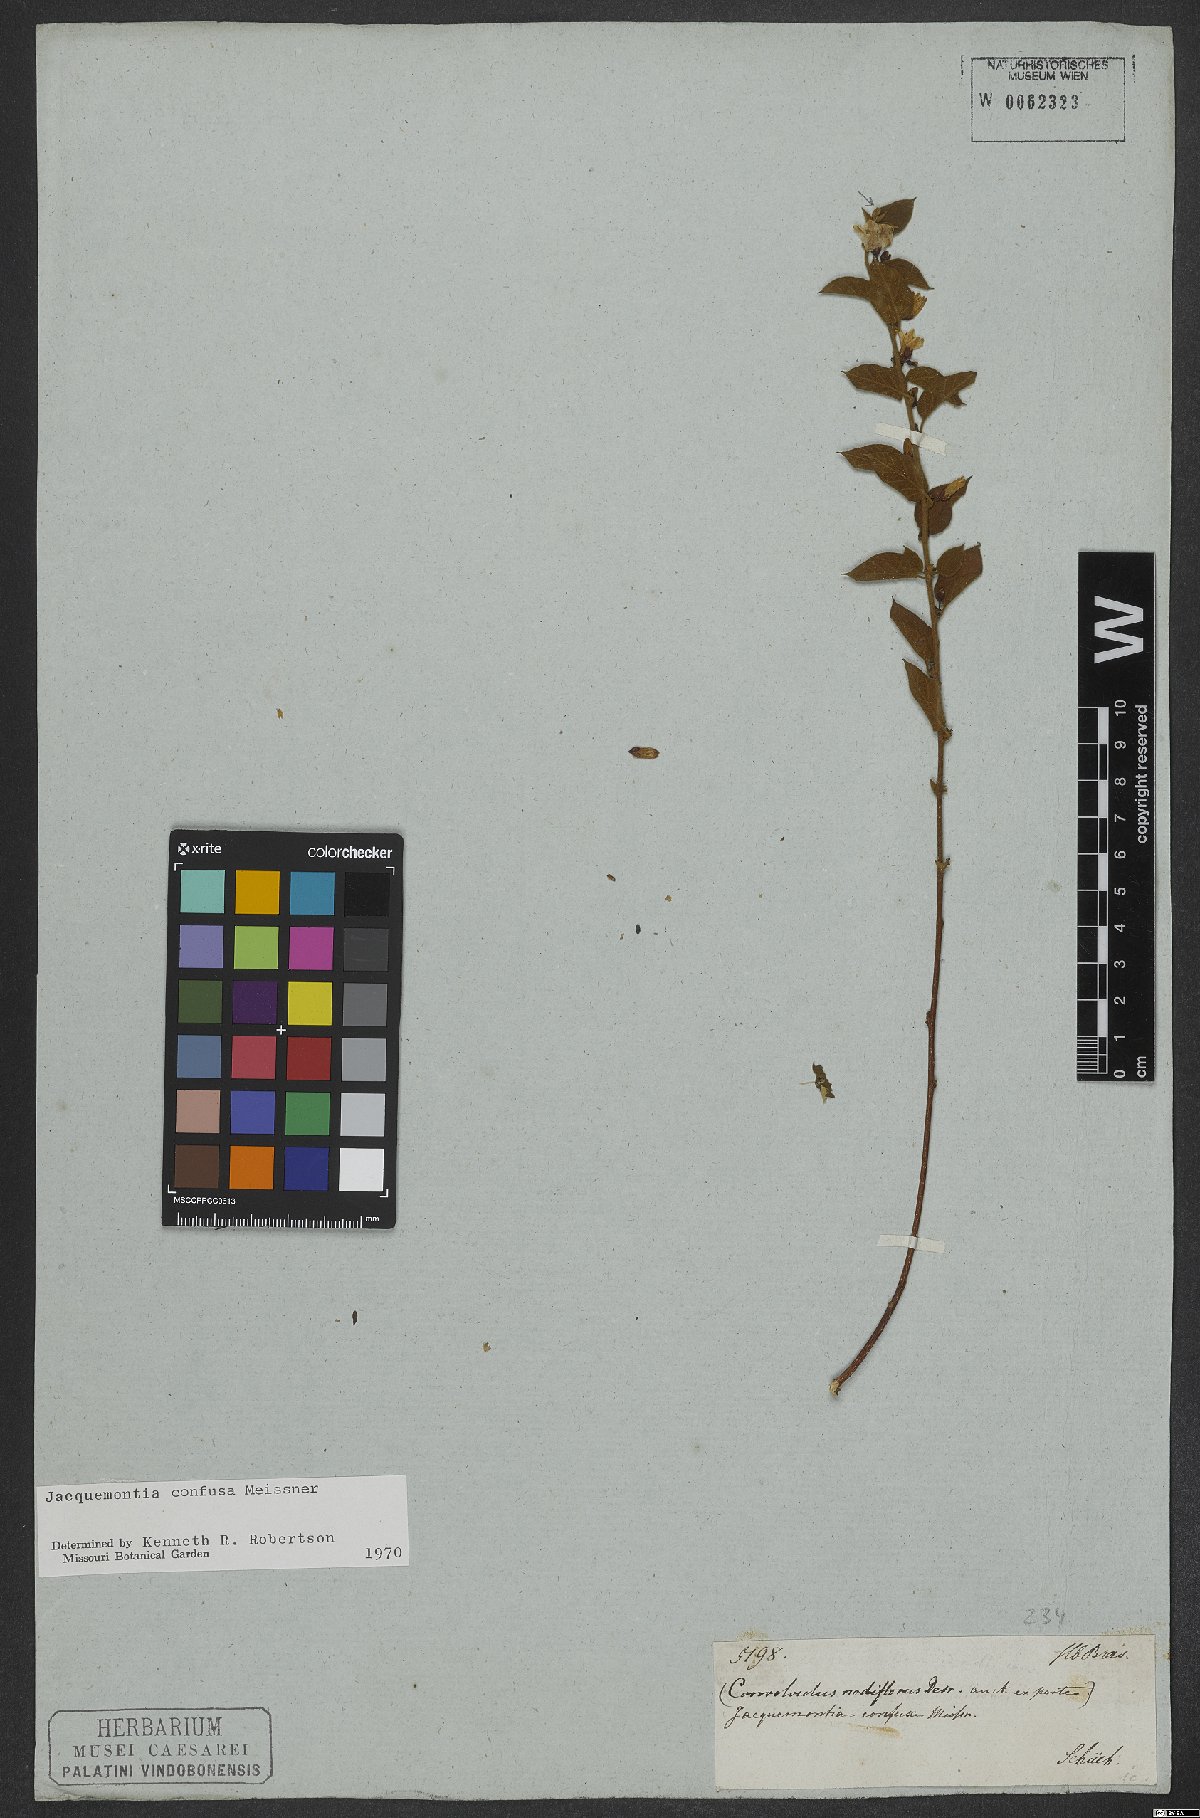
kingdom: Plantae
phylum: Tracheophyta
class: Magnoliopsida
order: Solanales
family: Convolvulaceae
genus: Jacquemontia
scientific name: Jacquemontia nodiflora
